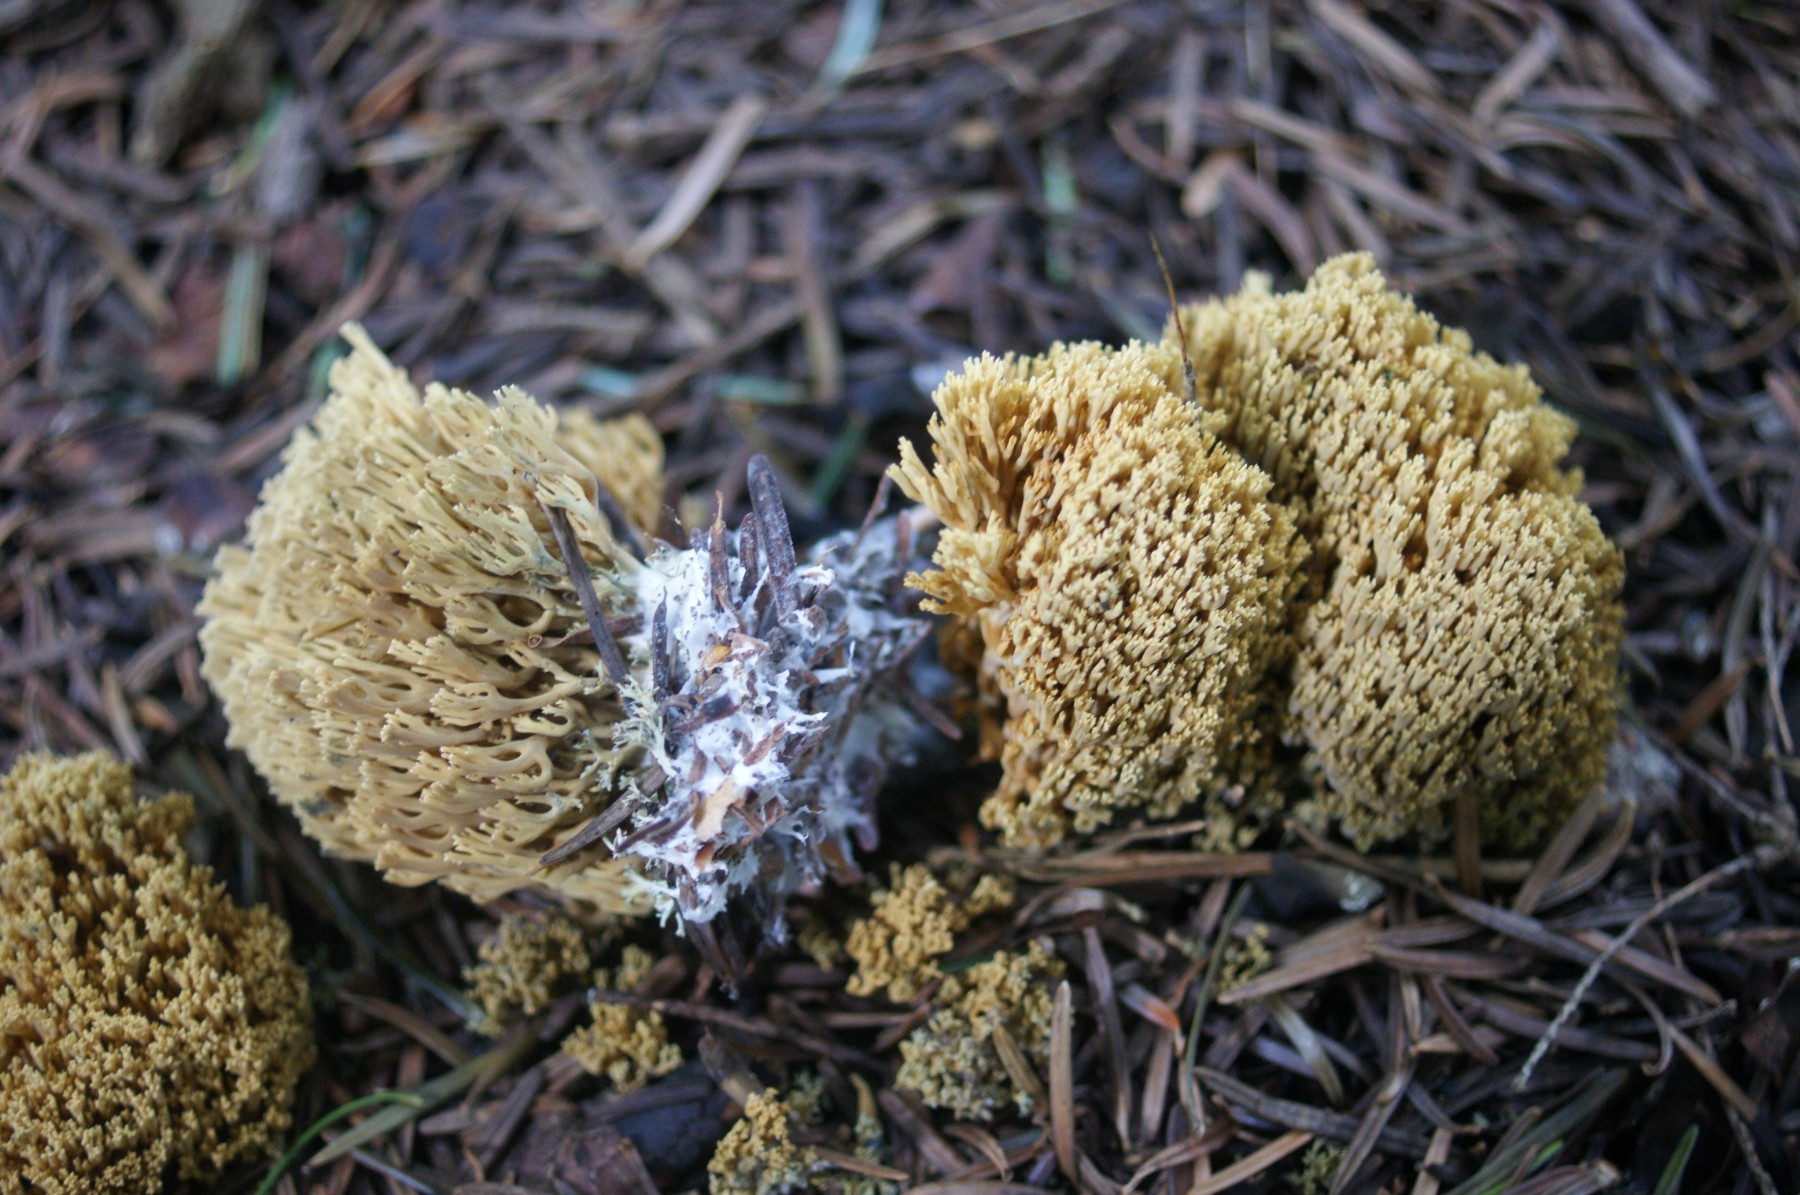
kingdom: Fungi
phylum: Basidiomycota
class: Agaricomycetes
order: Gomphales
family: Gomphaceae
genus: Phaeoclavulina
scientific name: Phaeoclavulina eumorpha
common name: gran-koralsvamp
